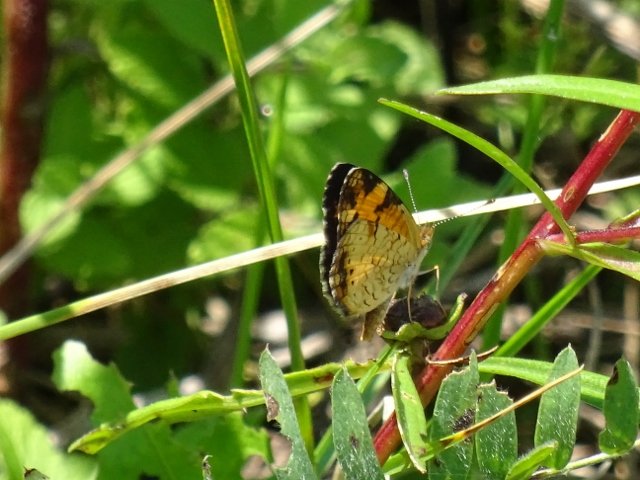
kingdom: Animalia
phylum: Arthropoda
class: Insecta
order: Lepidoptera
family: Nymphalidae
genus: Phyciodes
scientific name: Phyciodes
